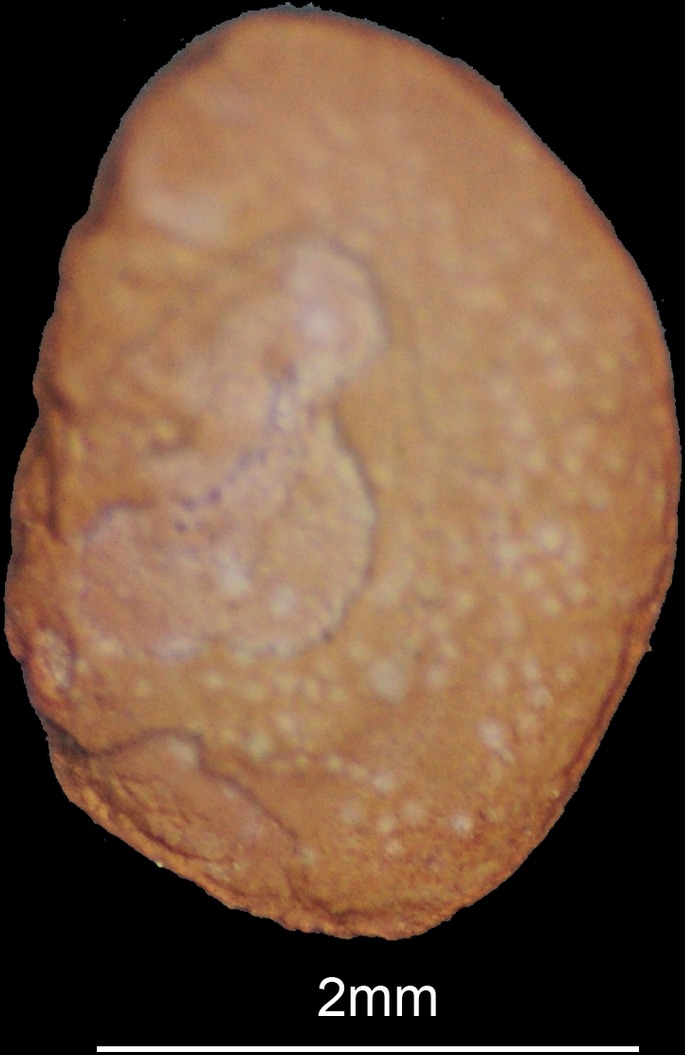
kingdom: Animalia
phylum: Chordata
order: Polypteriformes
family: Polypteridae
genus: Polypterus
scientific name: Polypterus senegalus
